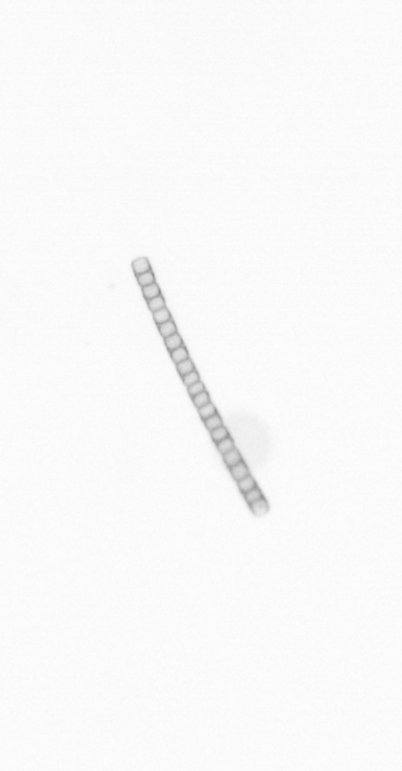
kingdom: Chromista
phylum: Ochrophyta
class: Bacillariophyceae
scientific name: Bacillariophyceae
